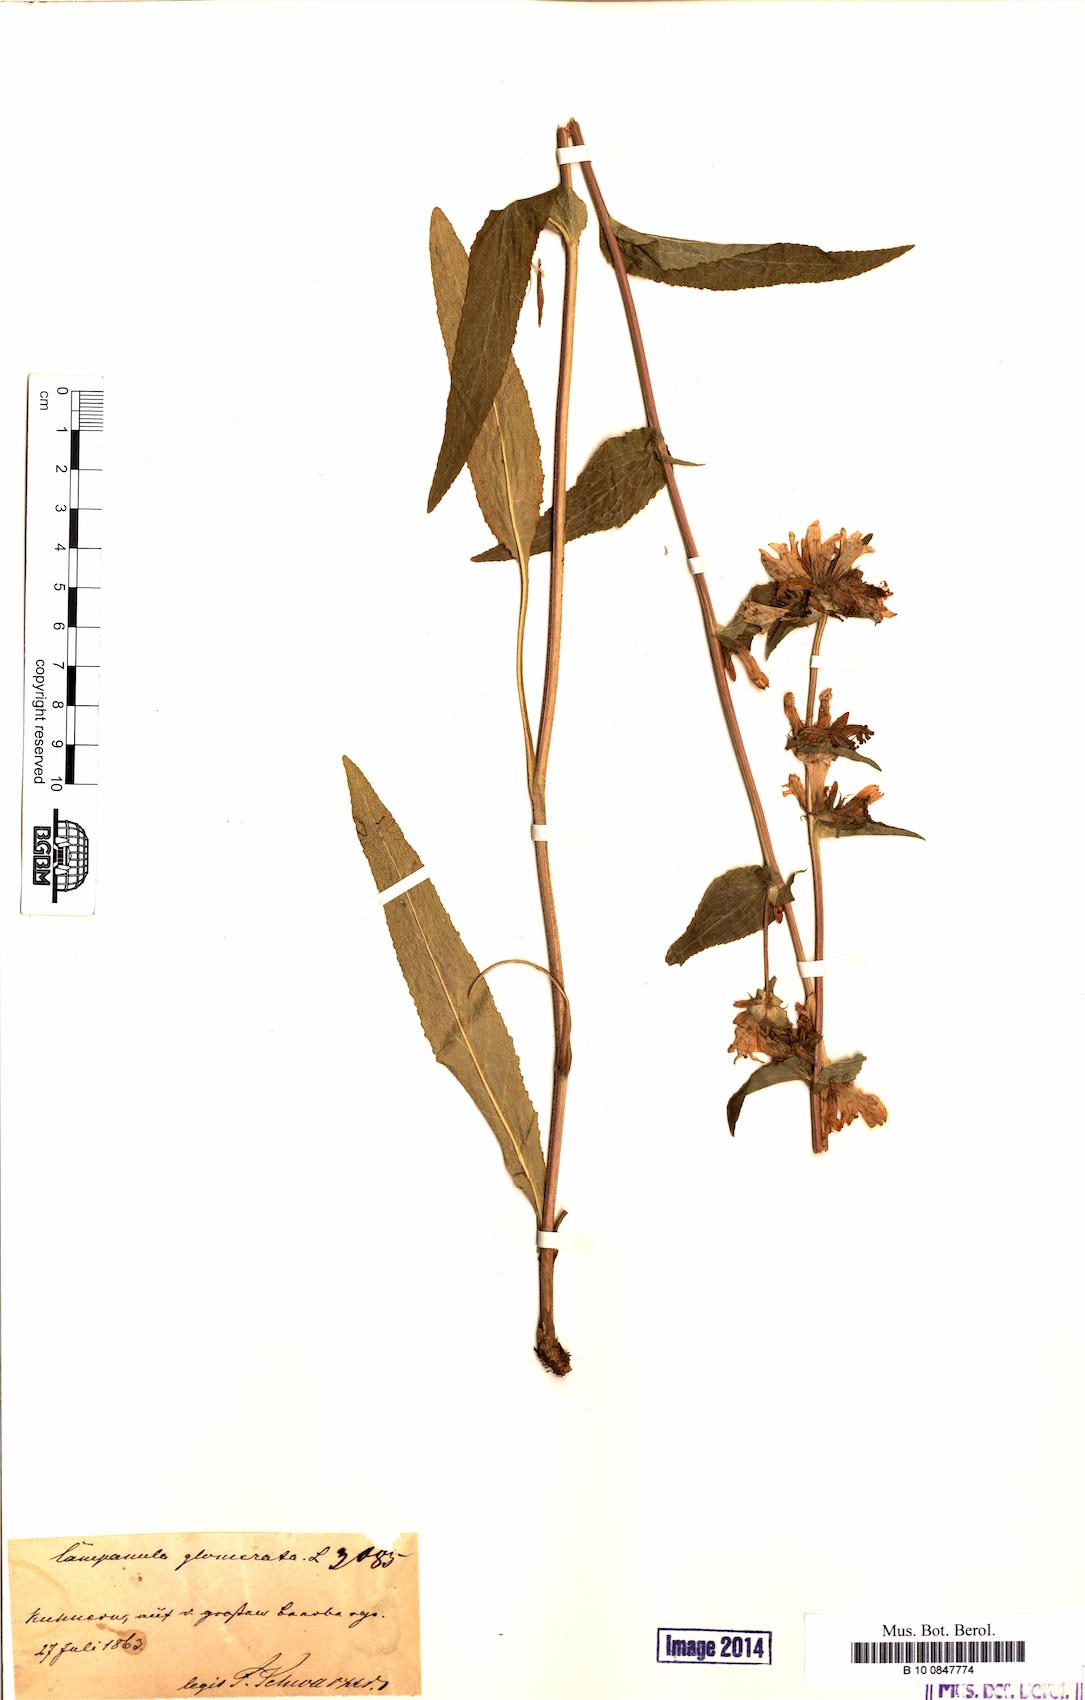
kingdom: Plantae
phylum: Tracheophyta
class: Magnoliopsida
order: Asterales
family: Campanulaceae
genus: Campanula
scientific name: Campanula glomerata
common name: Clustered bellflower
